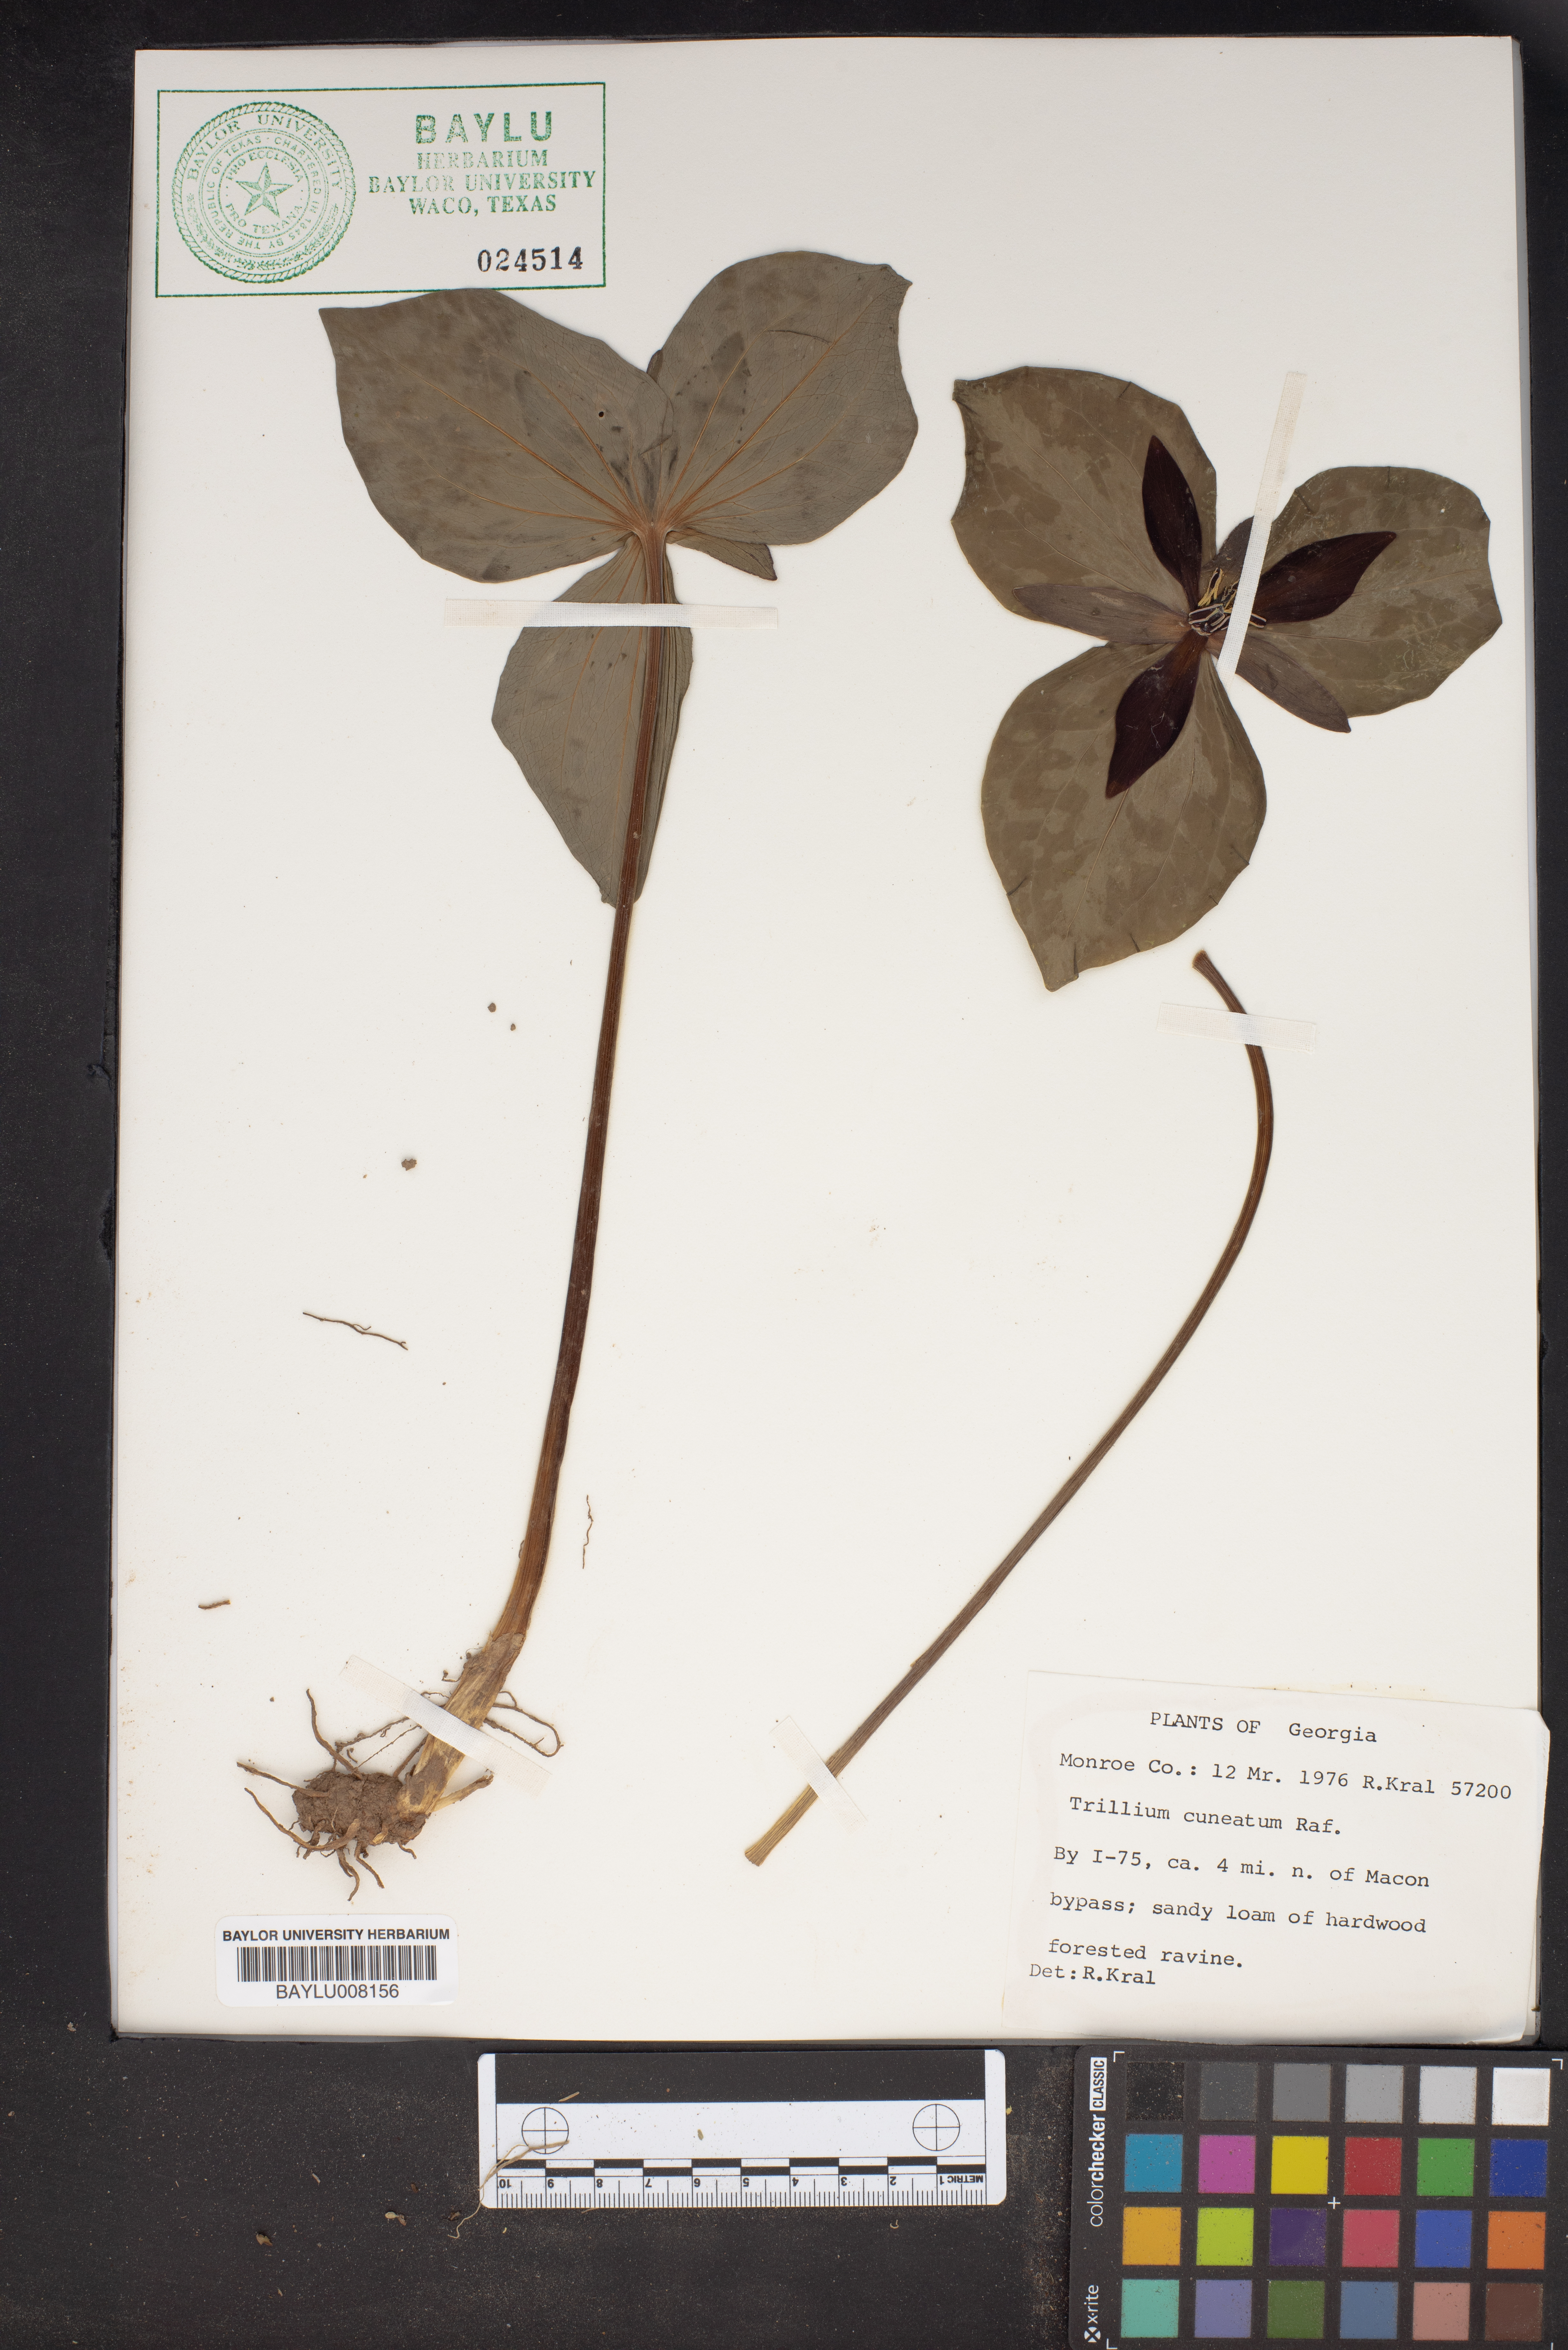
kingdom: Plantae
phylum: Tracheophyta
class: Liliopsida
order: Liliales
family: Melanthiaceae
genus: Trillium
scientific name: Trillium cuneatum
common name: Cuneate trillium
